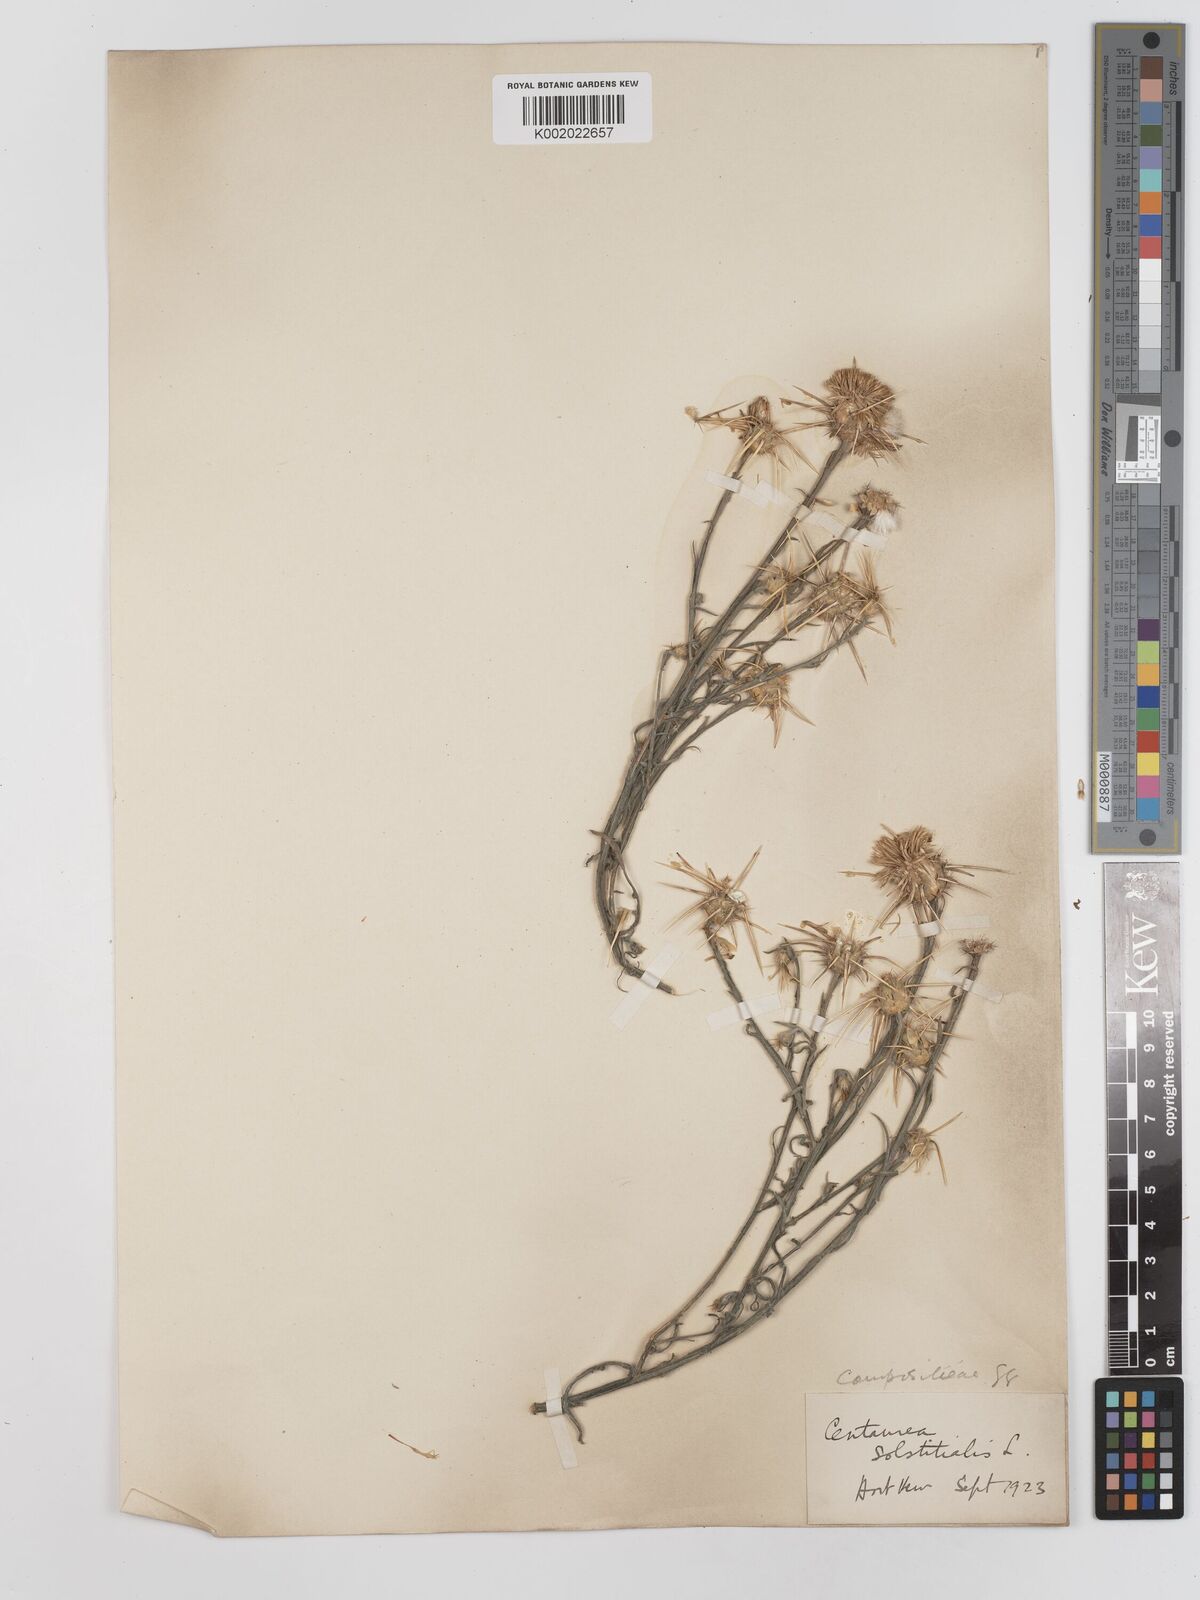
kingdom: Plantae
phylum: Tracheophyta
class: Magnoliopsida
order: Asterales
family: Asteraceae
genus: Centaurea
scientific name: Centaurea solstitialis
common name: Yellow star-thistle
